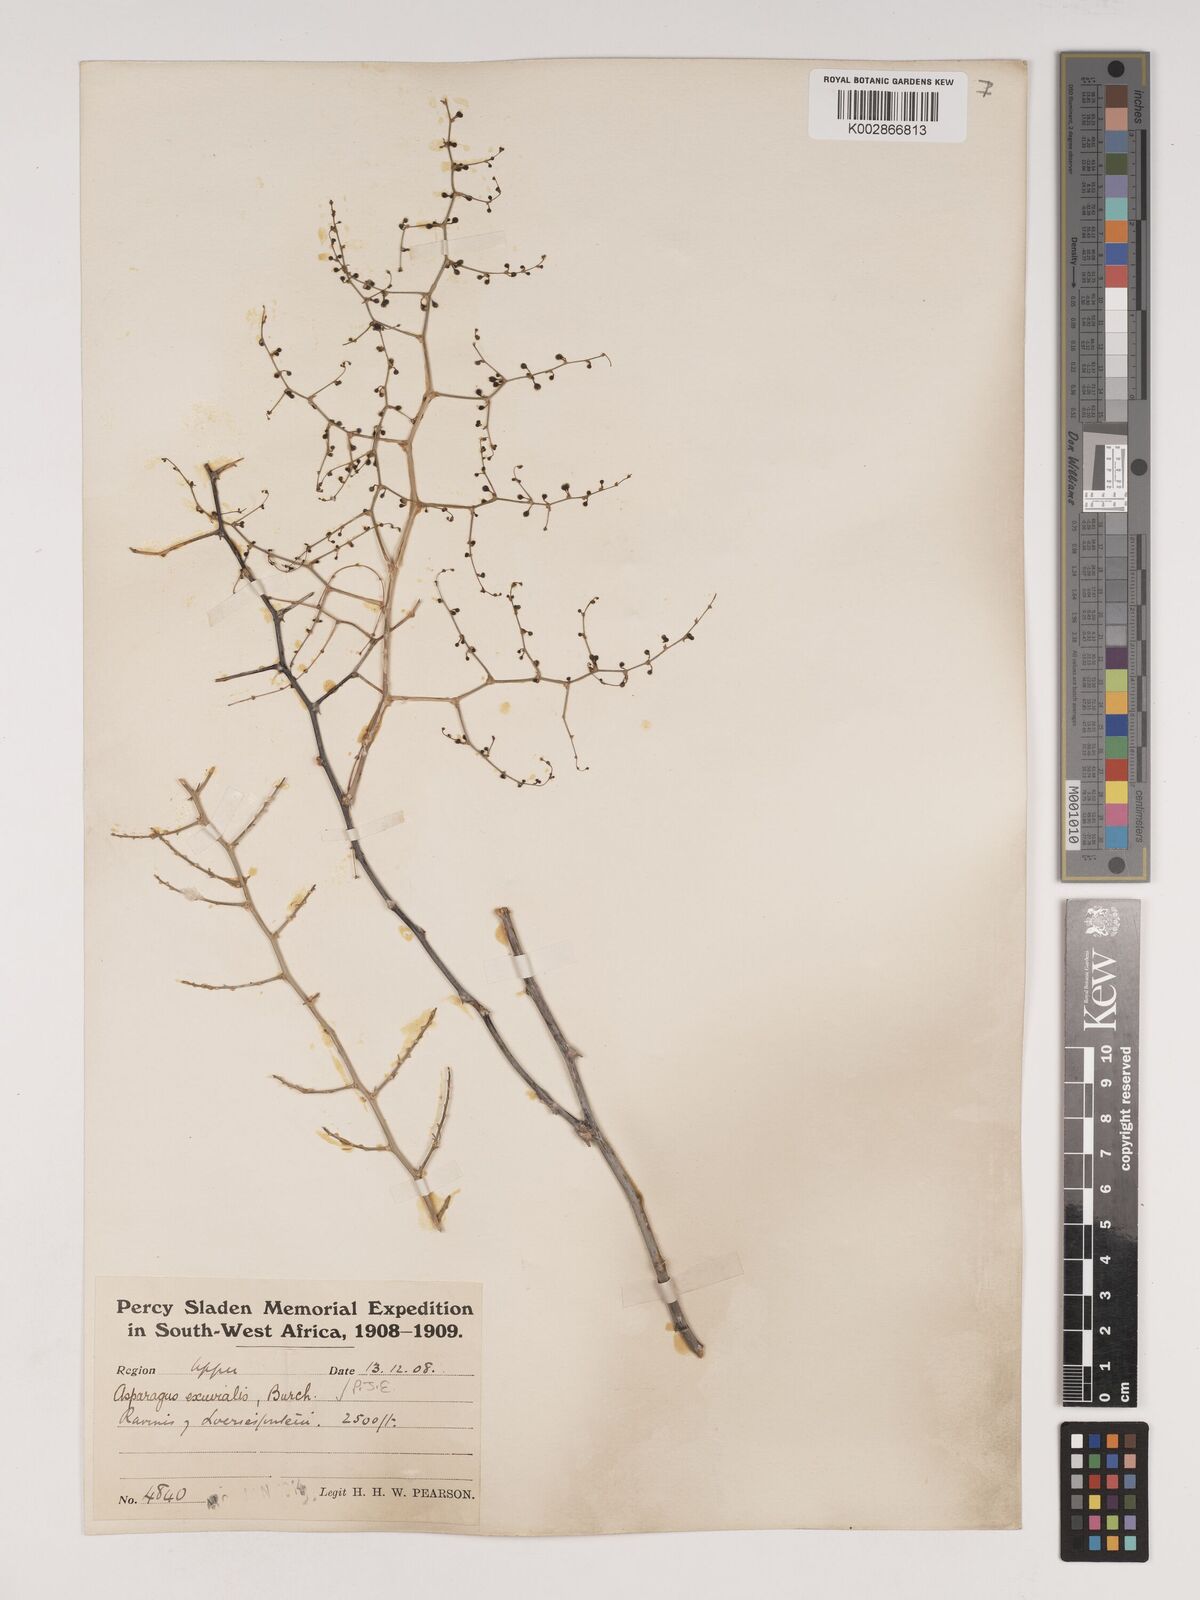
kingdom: Plantae
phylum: Tracheophyta
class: Liliopsida
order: Asparagales
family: Asparagaceae
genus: Asparagus
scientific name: Asparagus exuvialis
